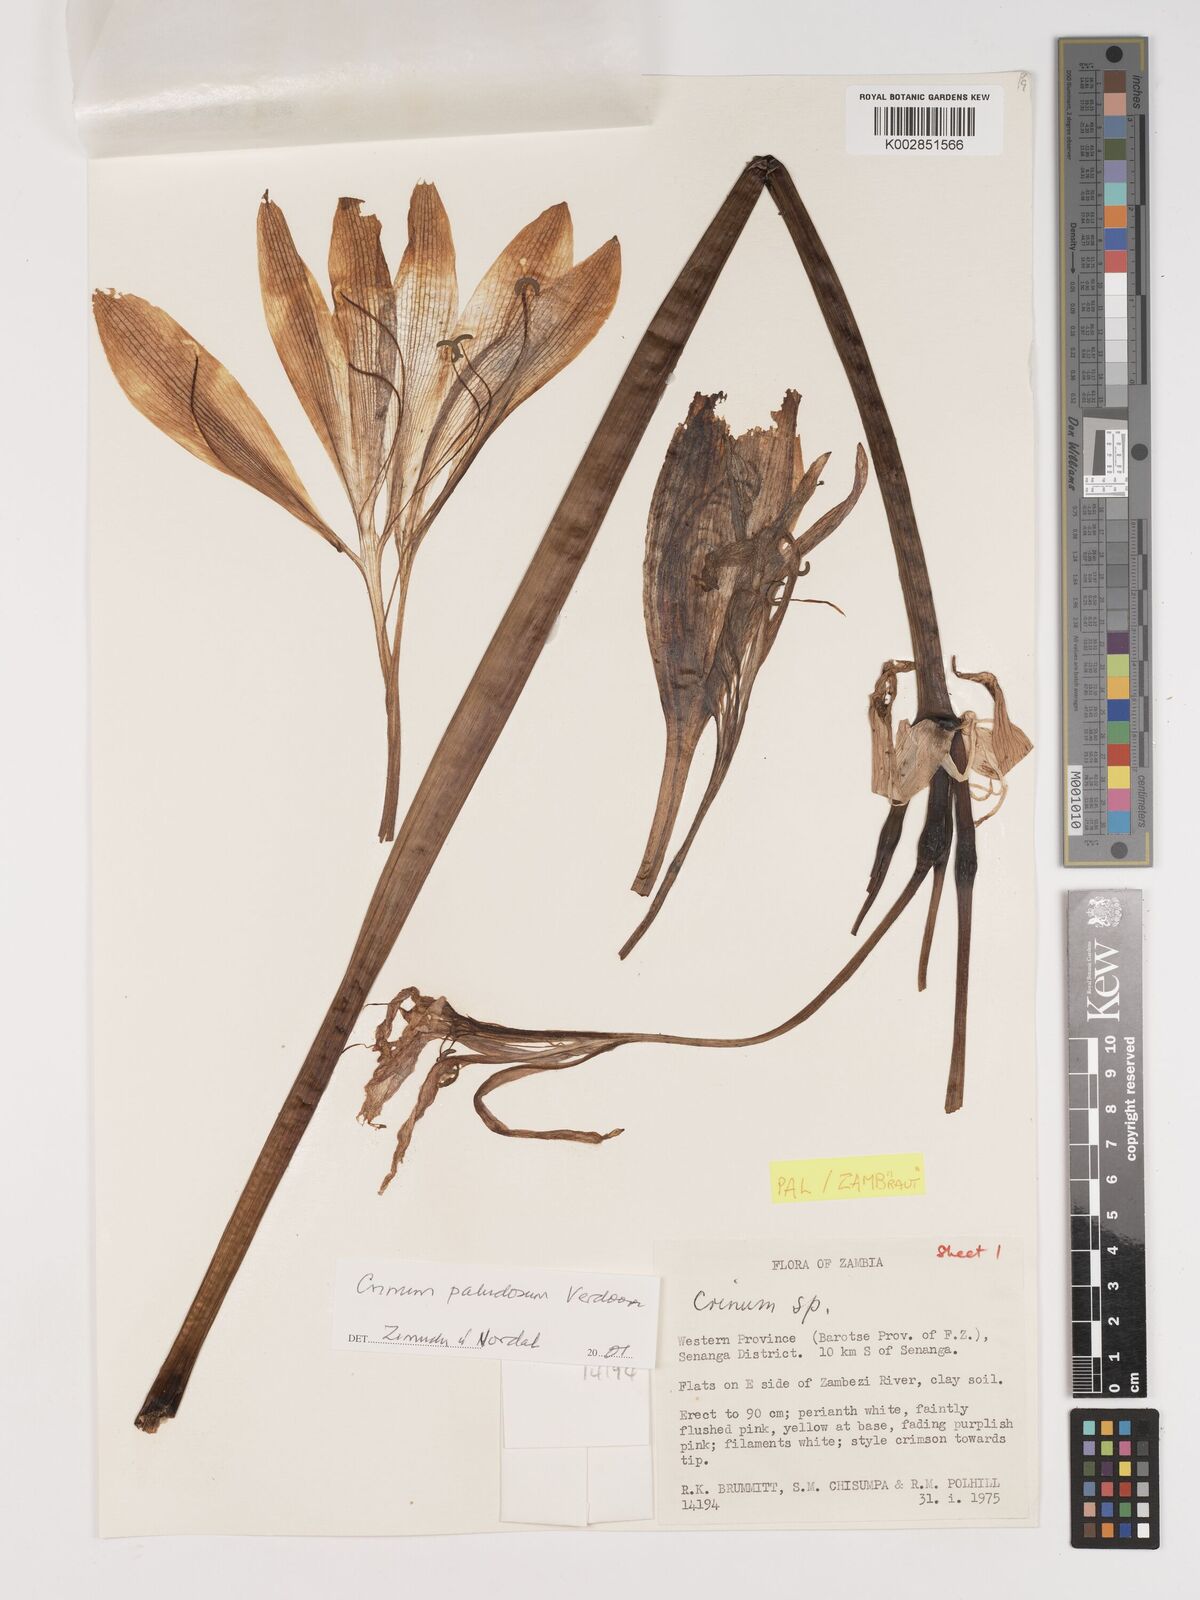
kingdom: Plantae
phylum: Tracheophyta
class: Liliopsida
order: Asparagales
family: Amaryllidaceae
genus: Crinum
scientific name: Crinum paludosum
